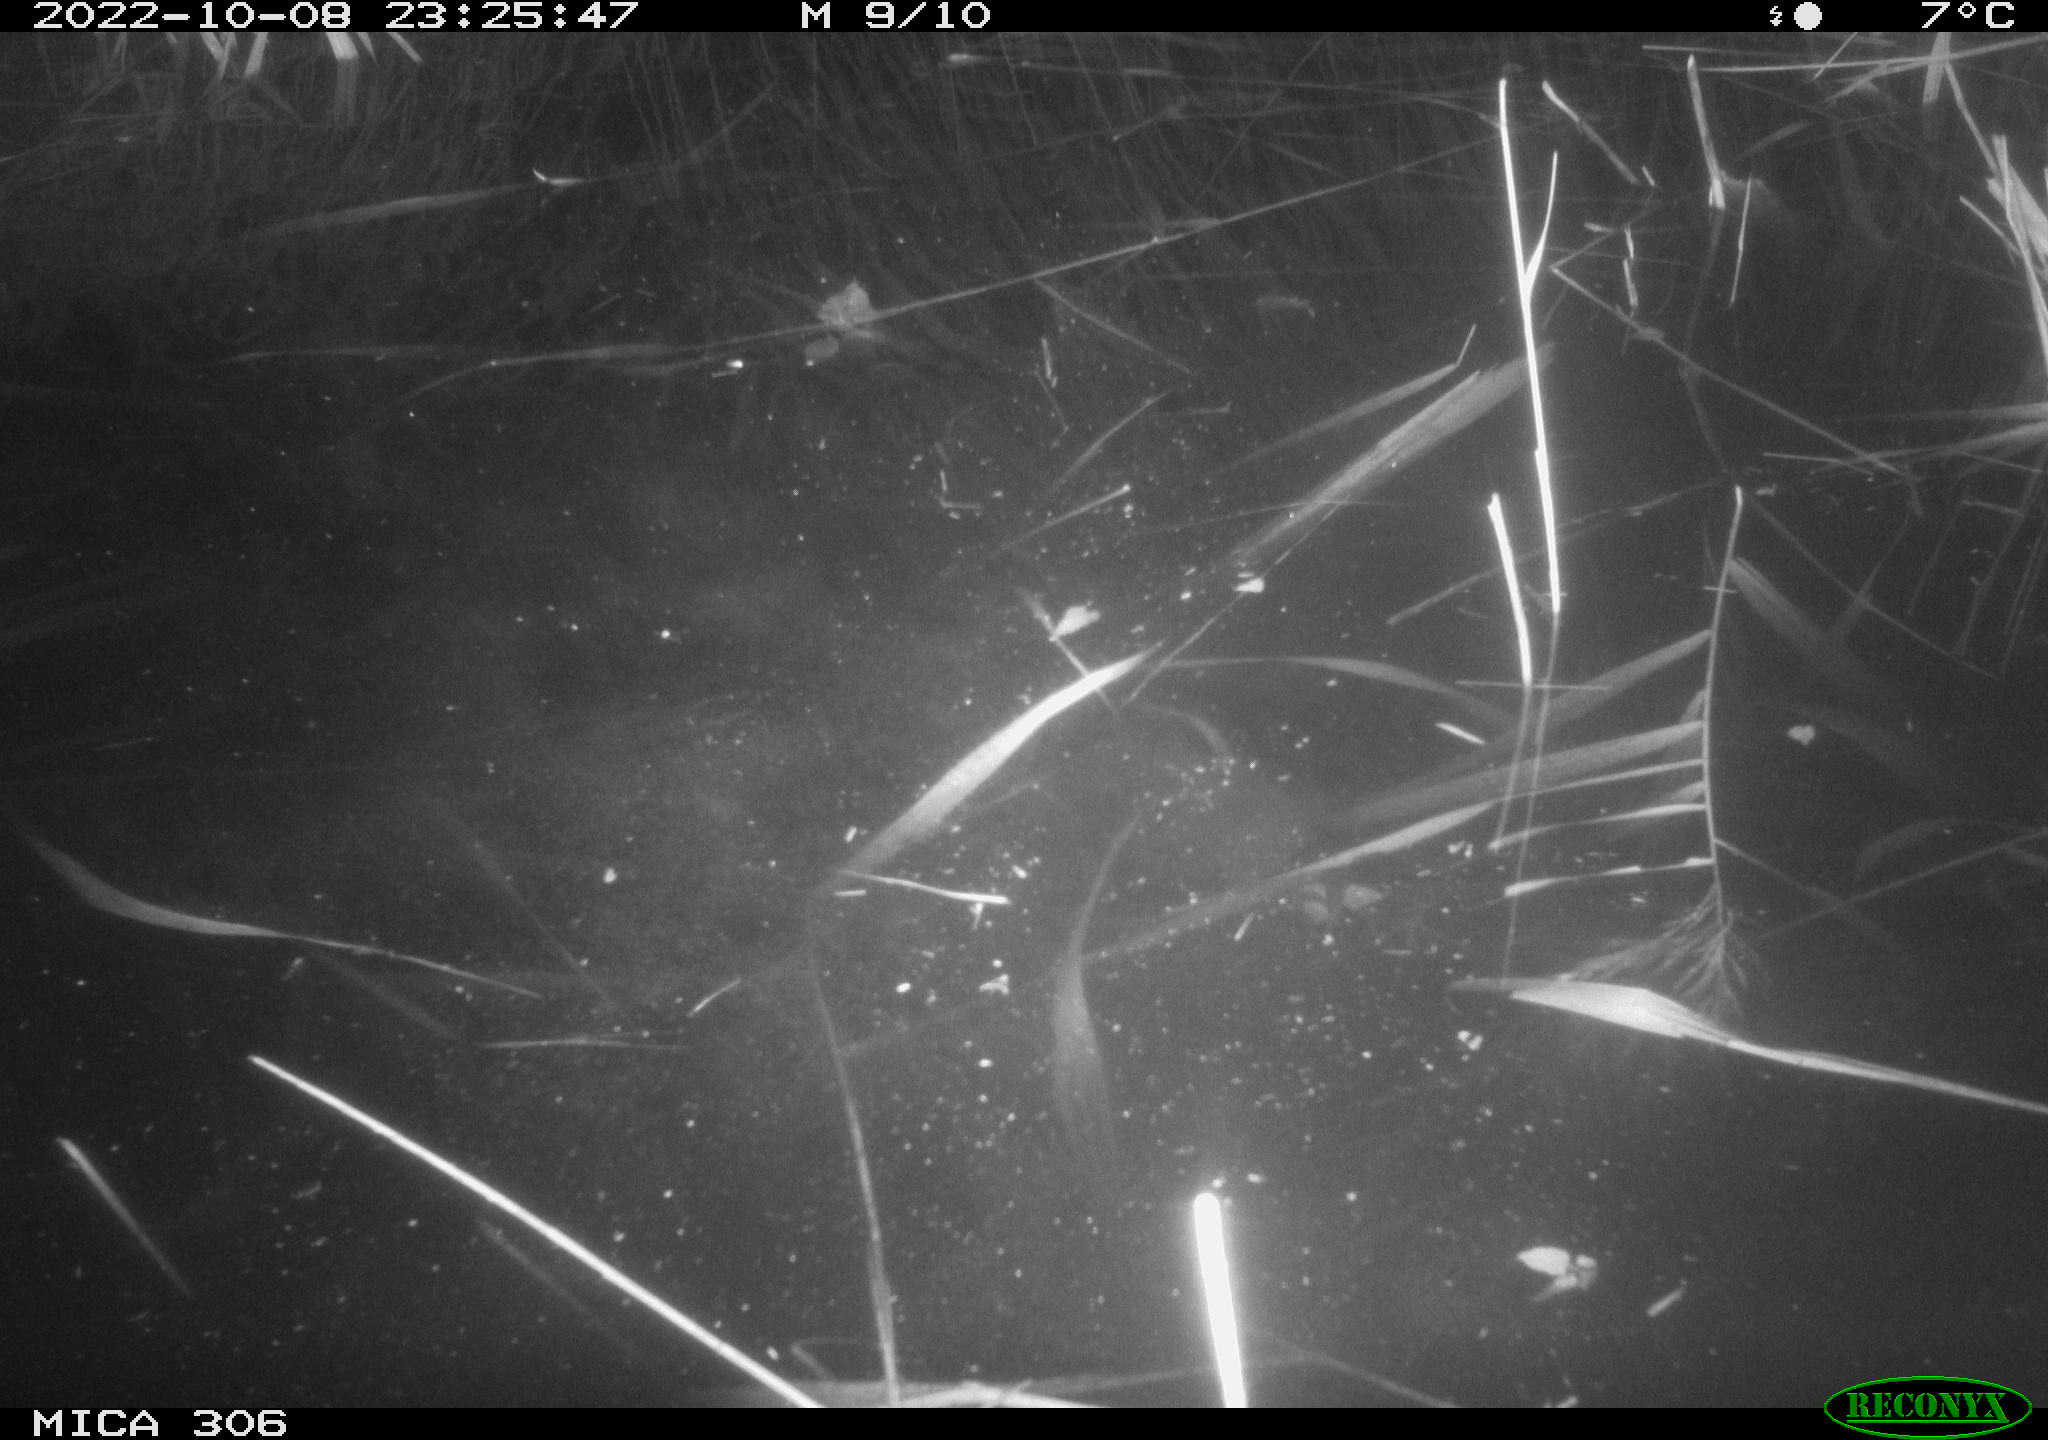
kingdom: Animalia
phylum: Chordata
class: Mammalia
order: Rodentia
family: Muridae
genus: Rattus
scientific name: Rattus norvegicus
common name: Brown rat
